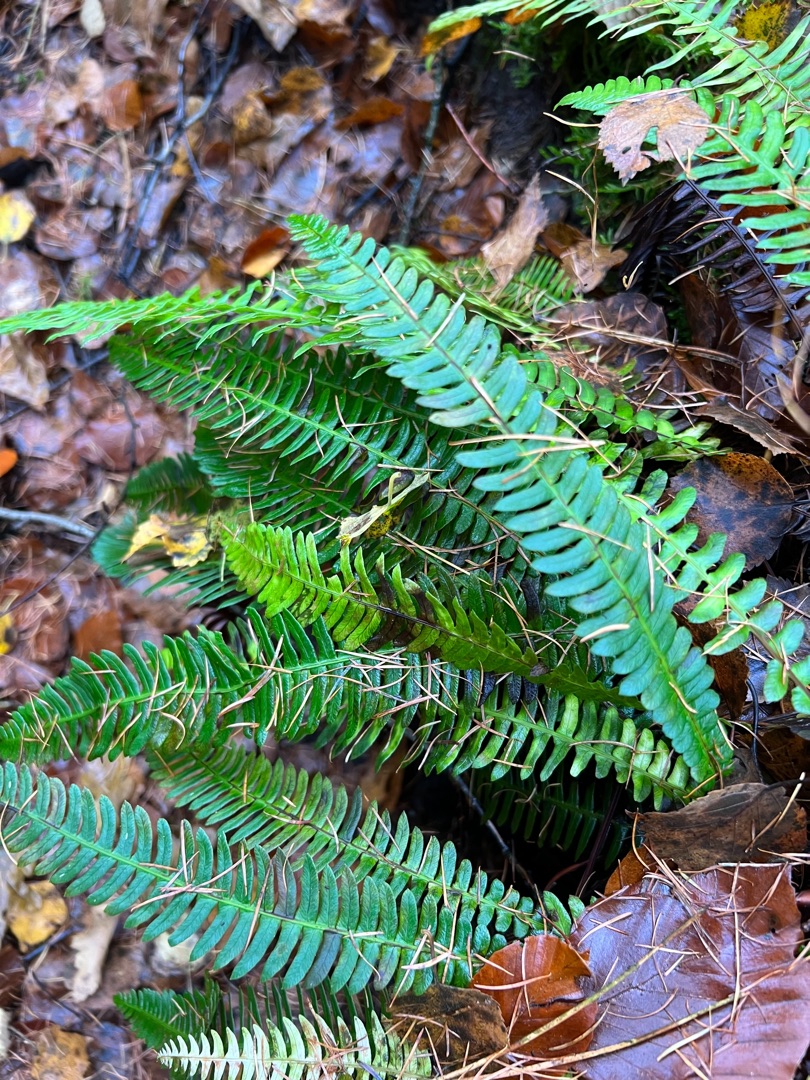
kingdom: Plantae
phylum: Tracheophyta
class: Polypodiopsida
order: Polypodiales
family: Blechnaceae
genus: Struthiopteris
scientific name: Struthiopteris spicant
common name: Kambregne
